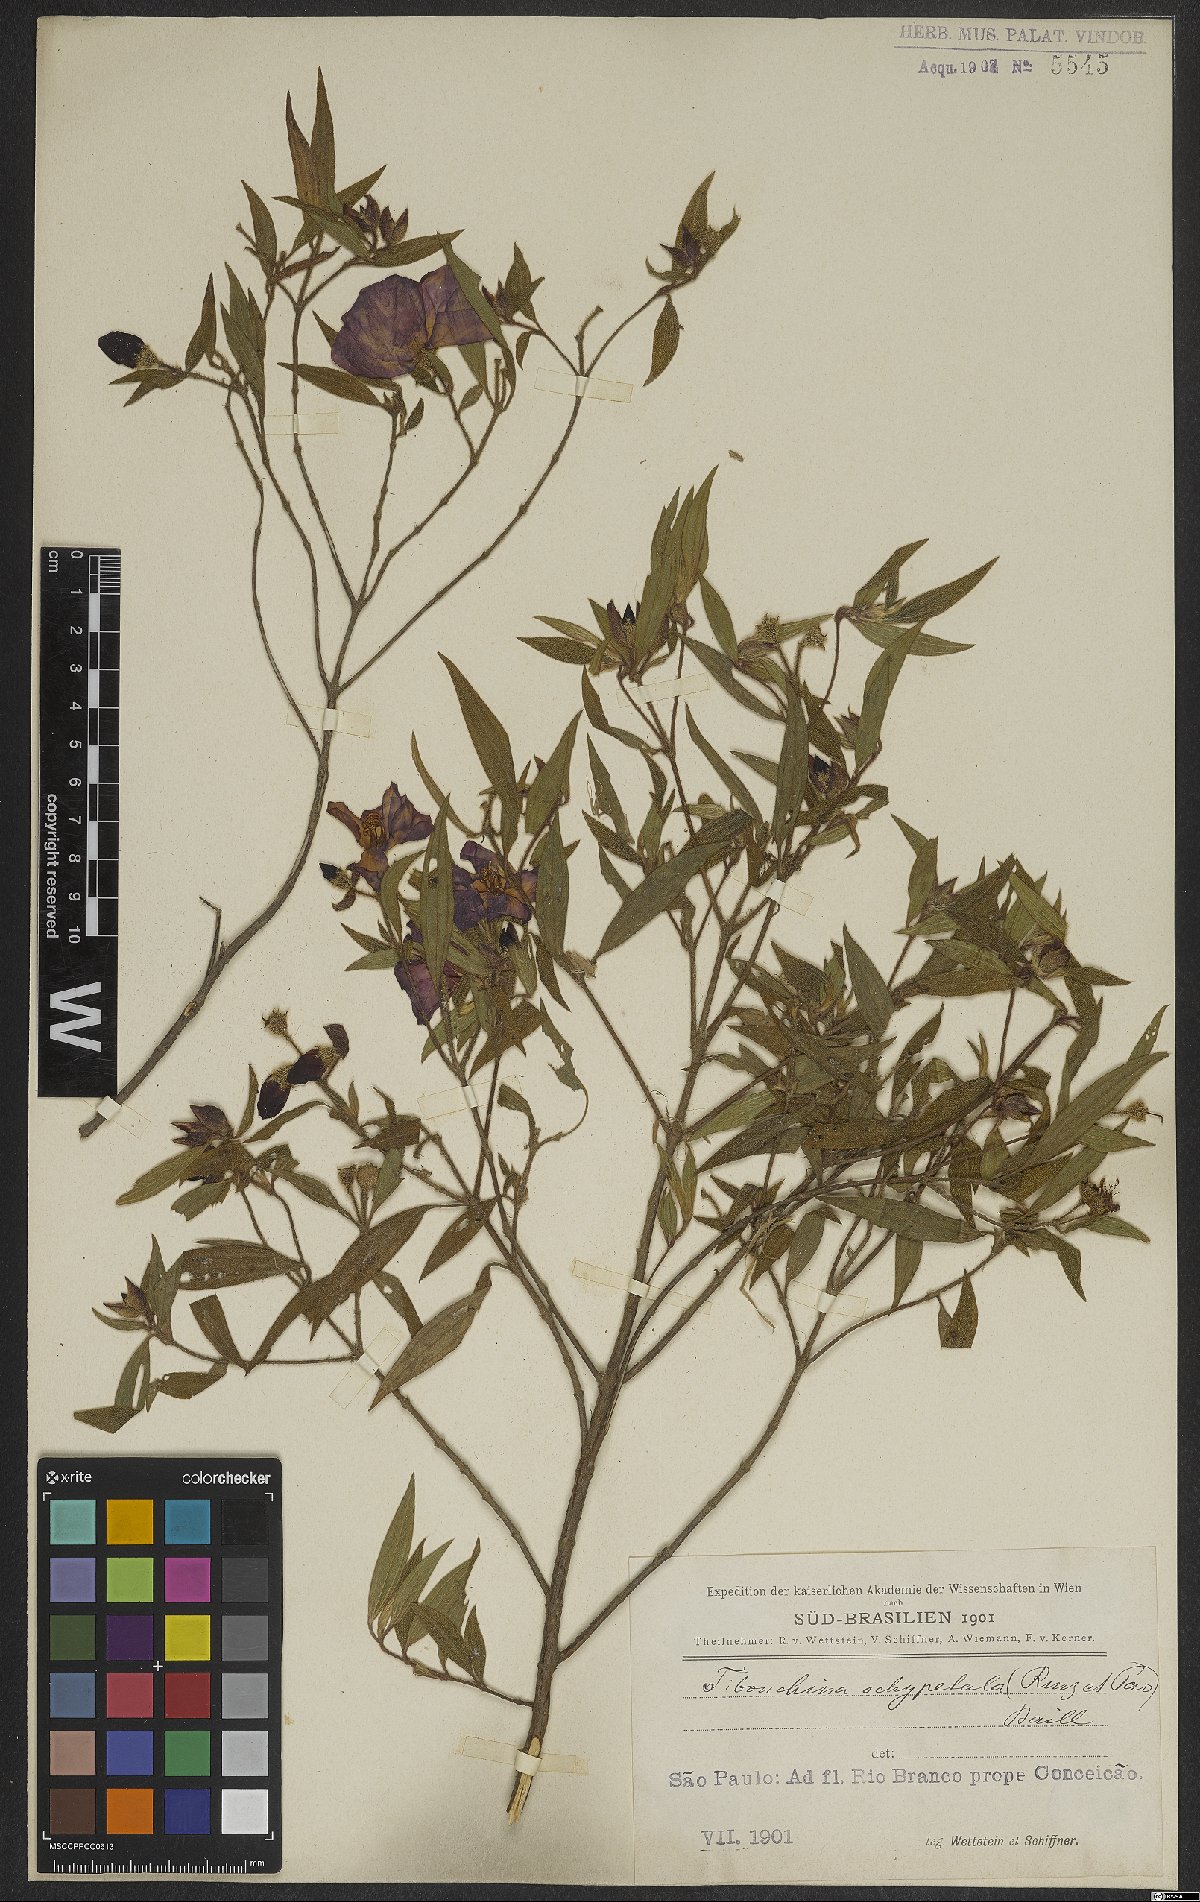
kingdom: Plantae
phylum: Tracheophyta
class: Magnoliopsida
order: Myrtales
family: Melastomataceae
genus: Pleroma
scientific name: Pleroma ochypetalum
